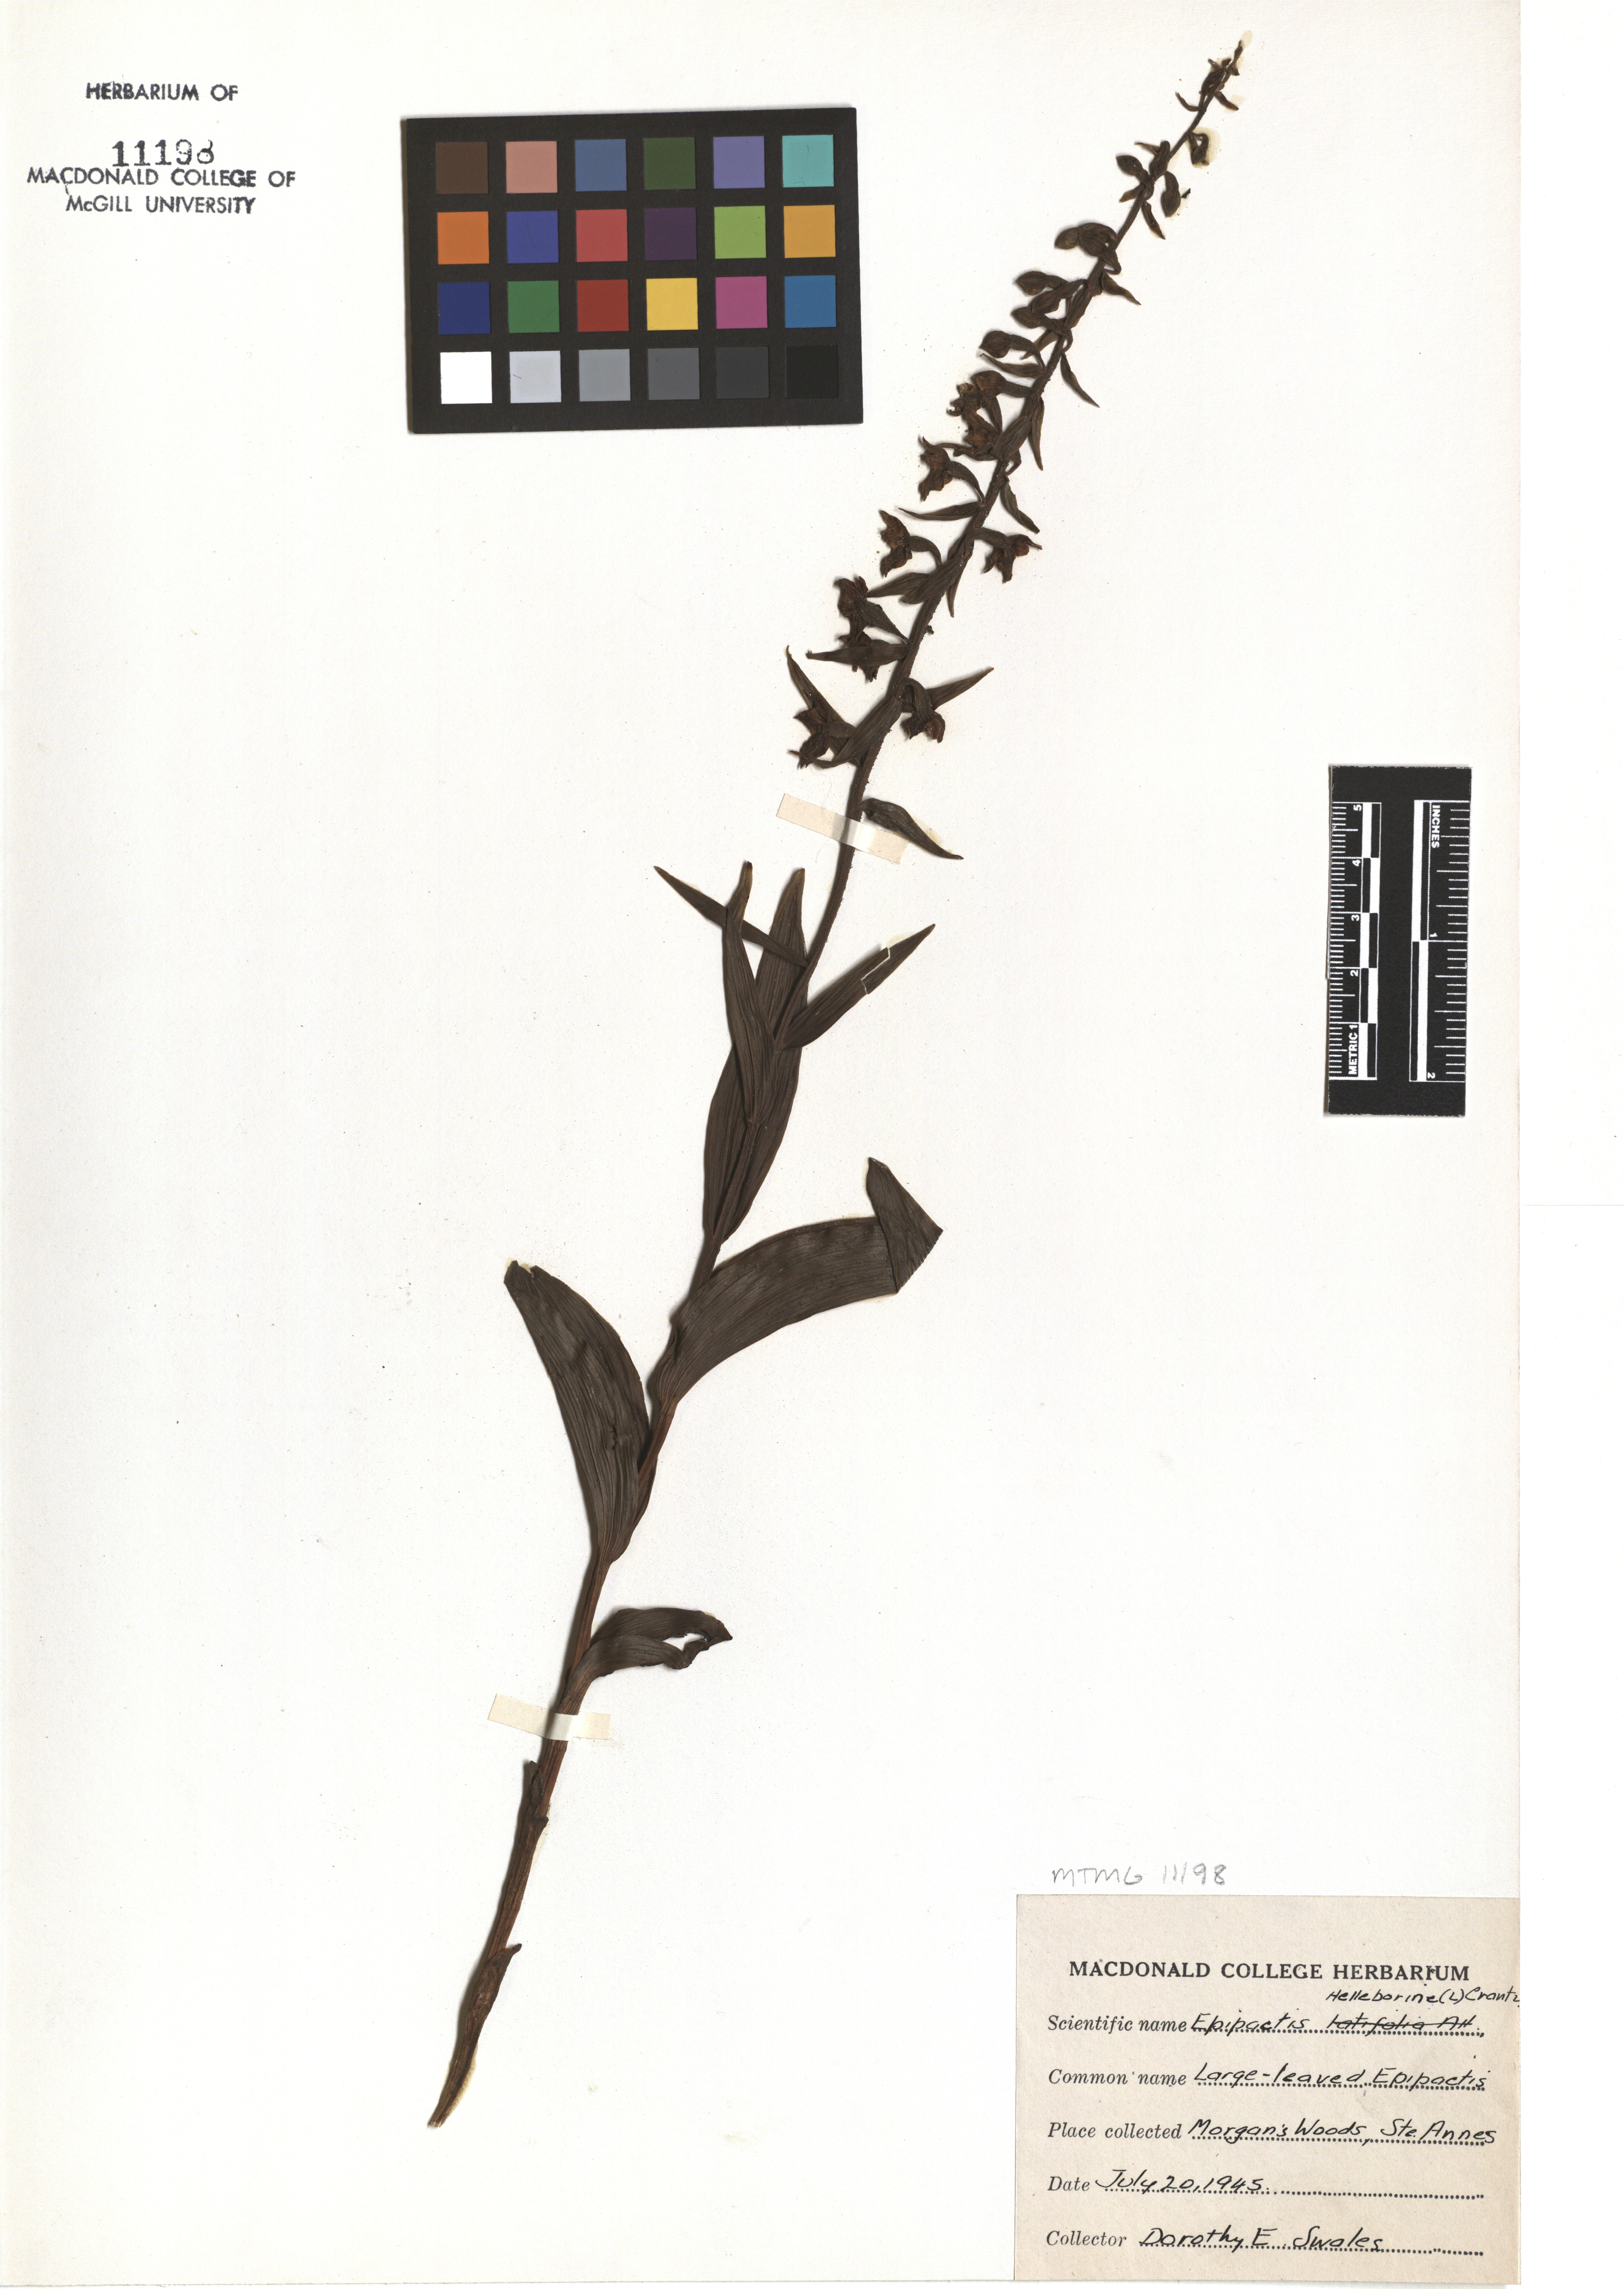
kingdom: Plantae
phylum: Tracheophyta
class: Liliopsida
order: Asparagales
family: Orchidaceae
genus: Epipactis
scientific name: Epipactis helleborine
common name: Broad-leaved helleborine
